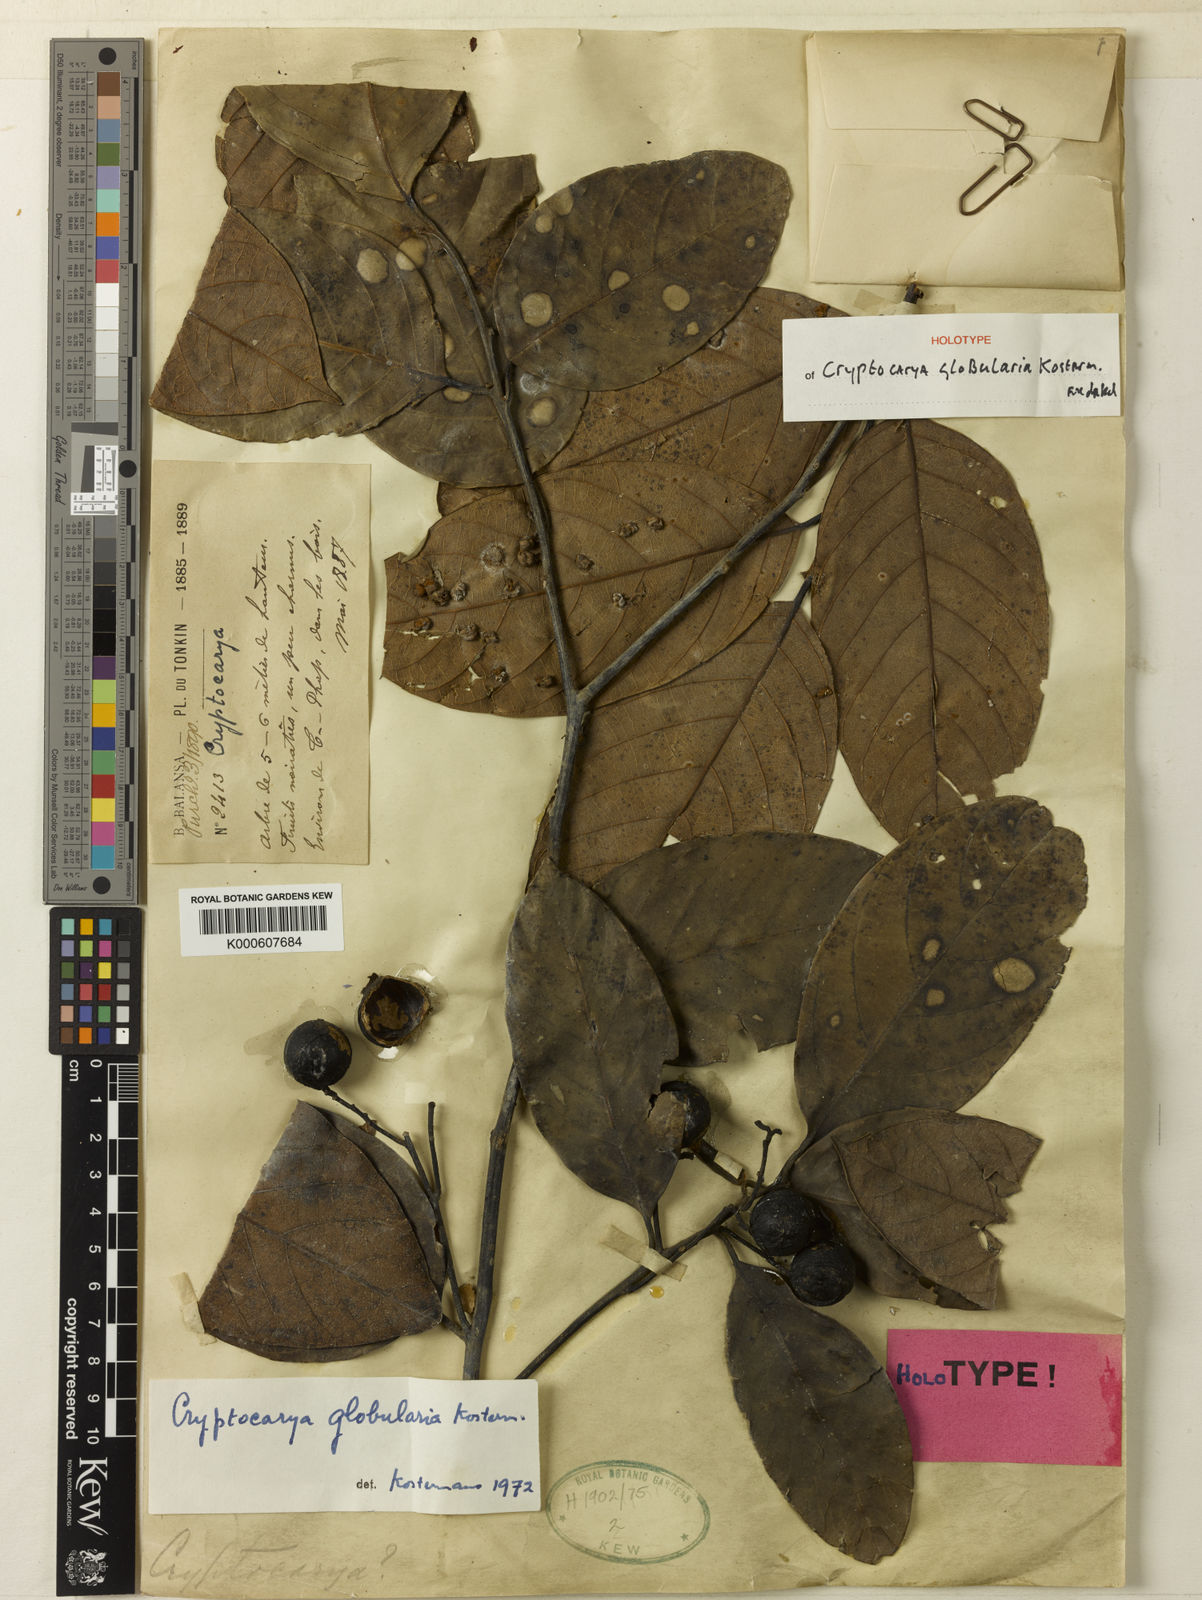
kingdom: Plantae
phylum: Tracheophyta
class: Magnoliopsida
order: Laurales
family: Lauraceae
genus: Cryptocarya
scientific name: Cryptocarya globularia
